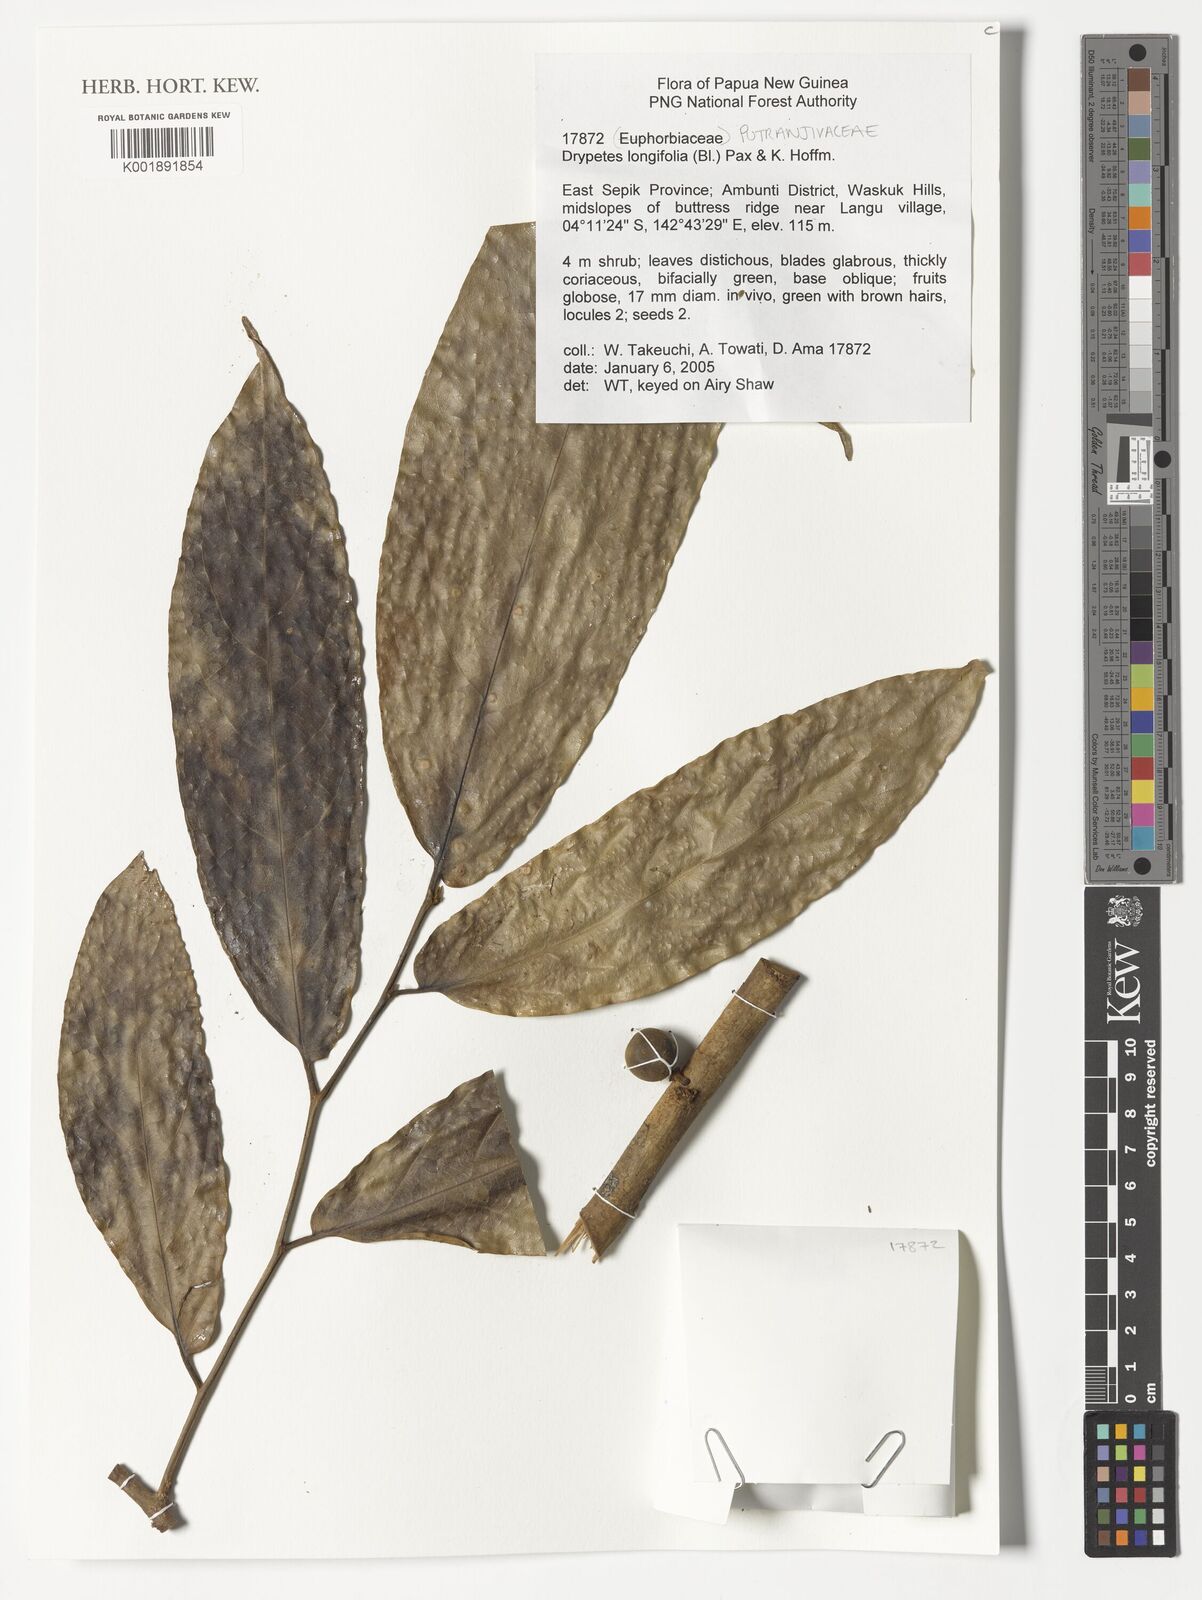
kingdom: Plantae
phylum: Tracheophyta
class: Magnoliopsida
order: Malpighiales
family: Putranjivaceae
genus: Drypetes
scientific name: Drypetes longifolia
